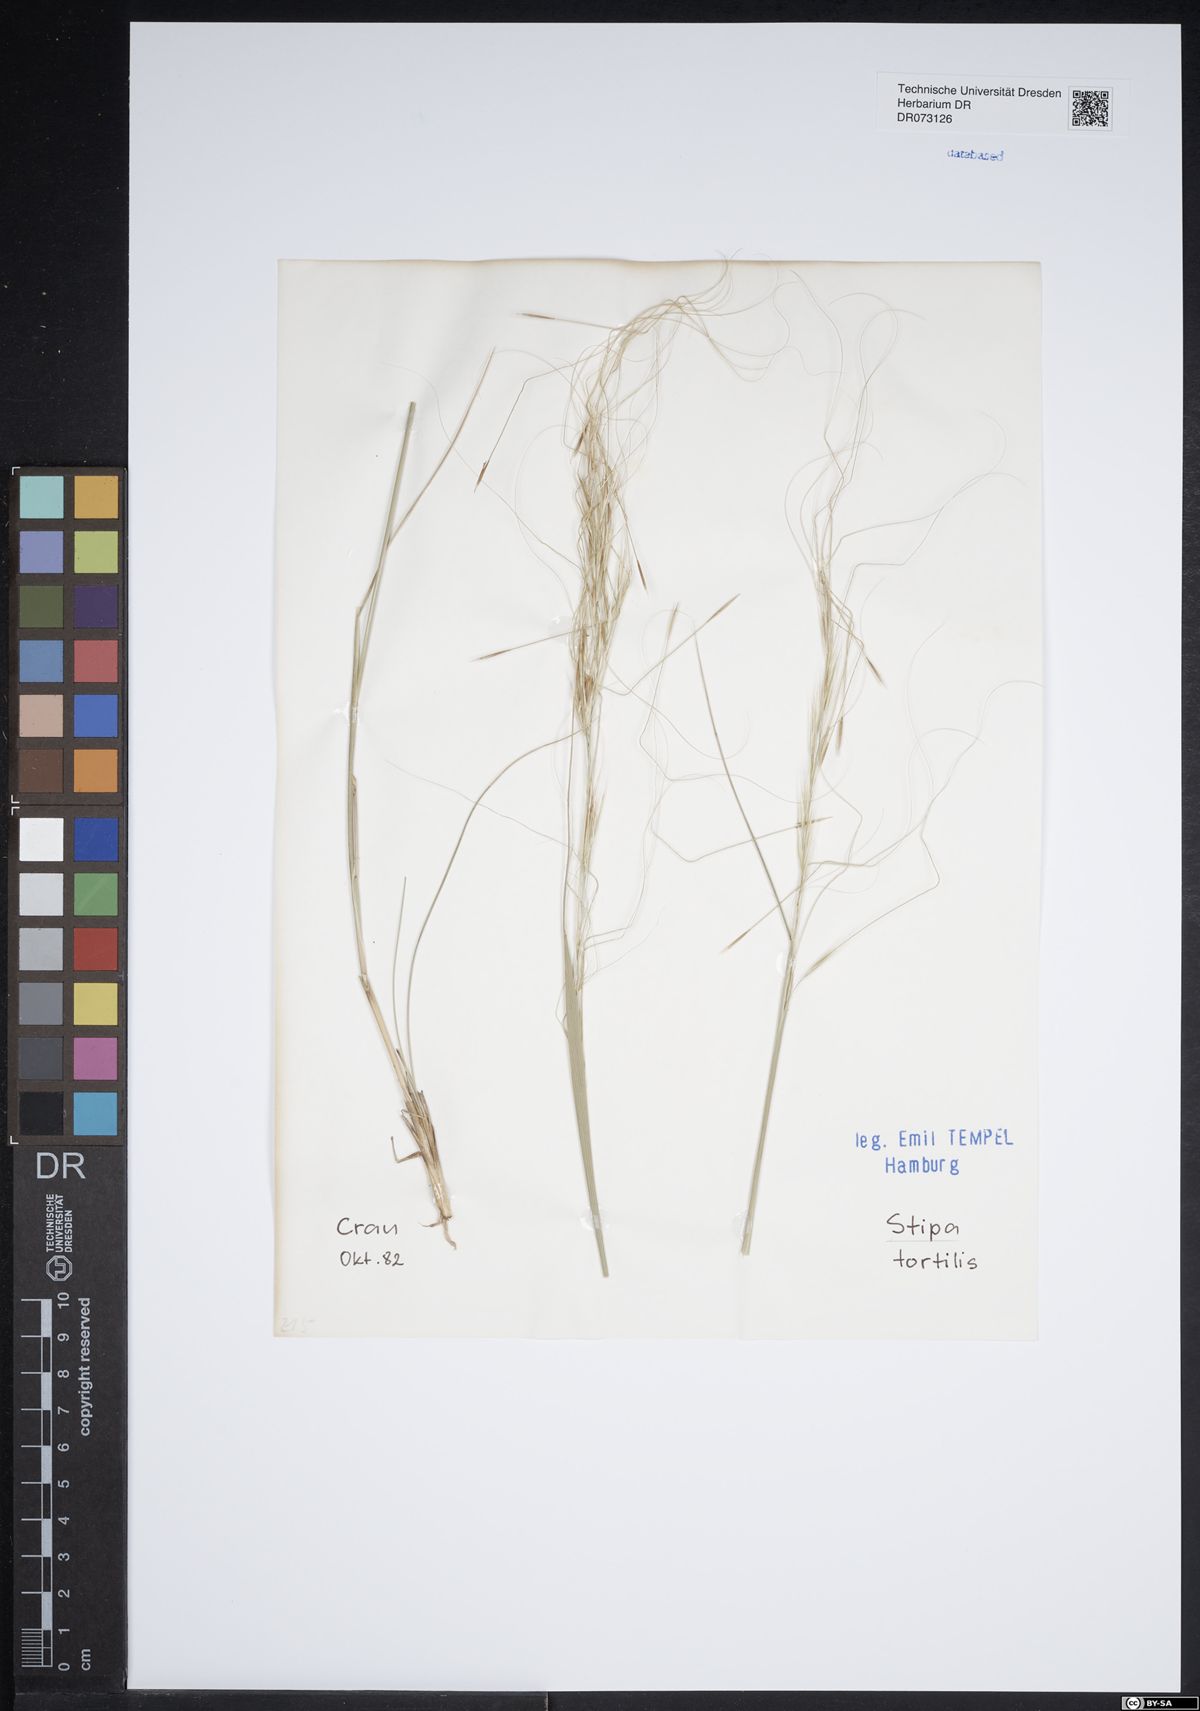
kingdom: Plantae
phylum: Tracheophyta
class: Liliopsida
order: Poales
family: Poaceae
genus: Stipa
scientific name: Stipa
